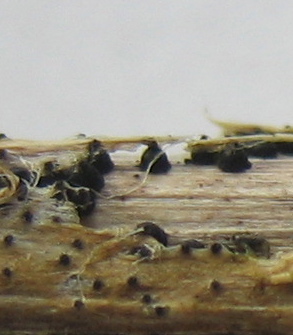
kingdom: Fungi
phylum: Ascomycota
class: Dothideomycetes
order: Pleosporales
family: Leptosphaeriaceae
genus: Leptosphaeria
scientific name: Leptosphaeria
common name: kulkegle
